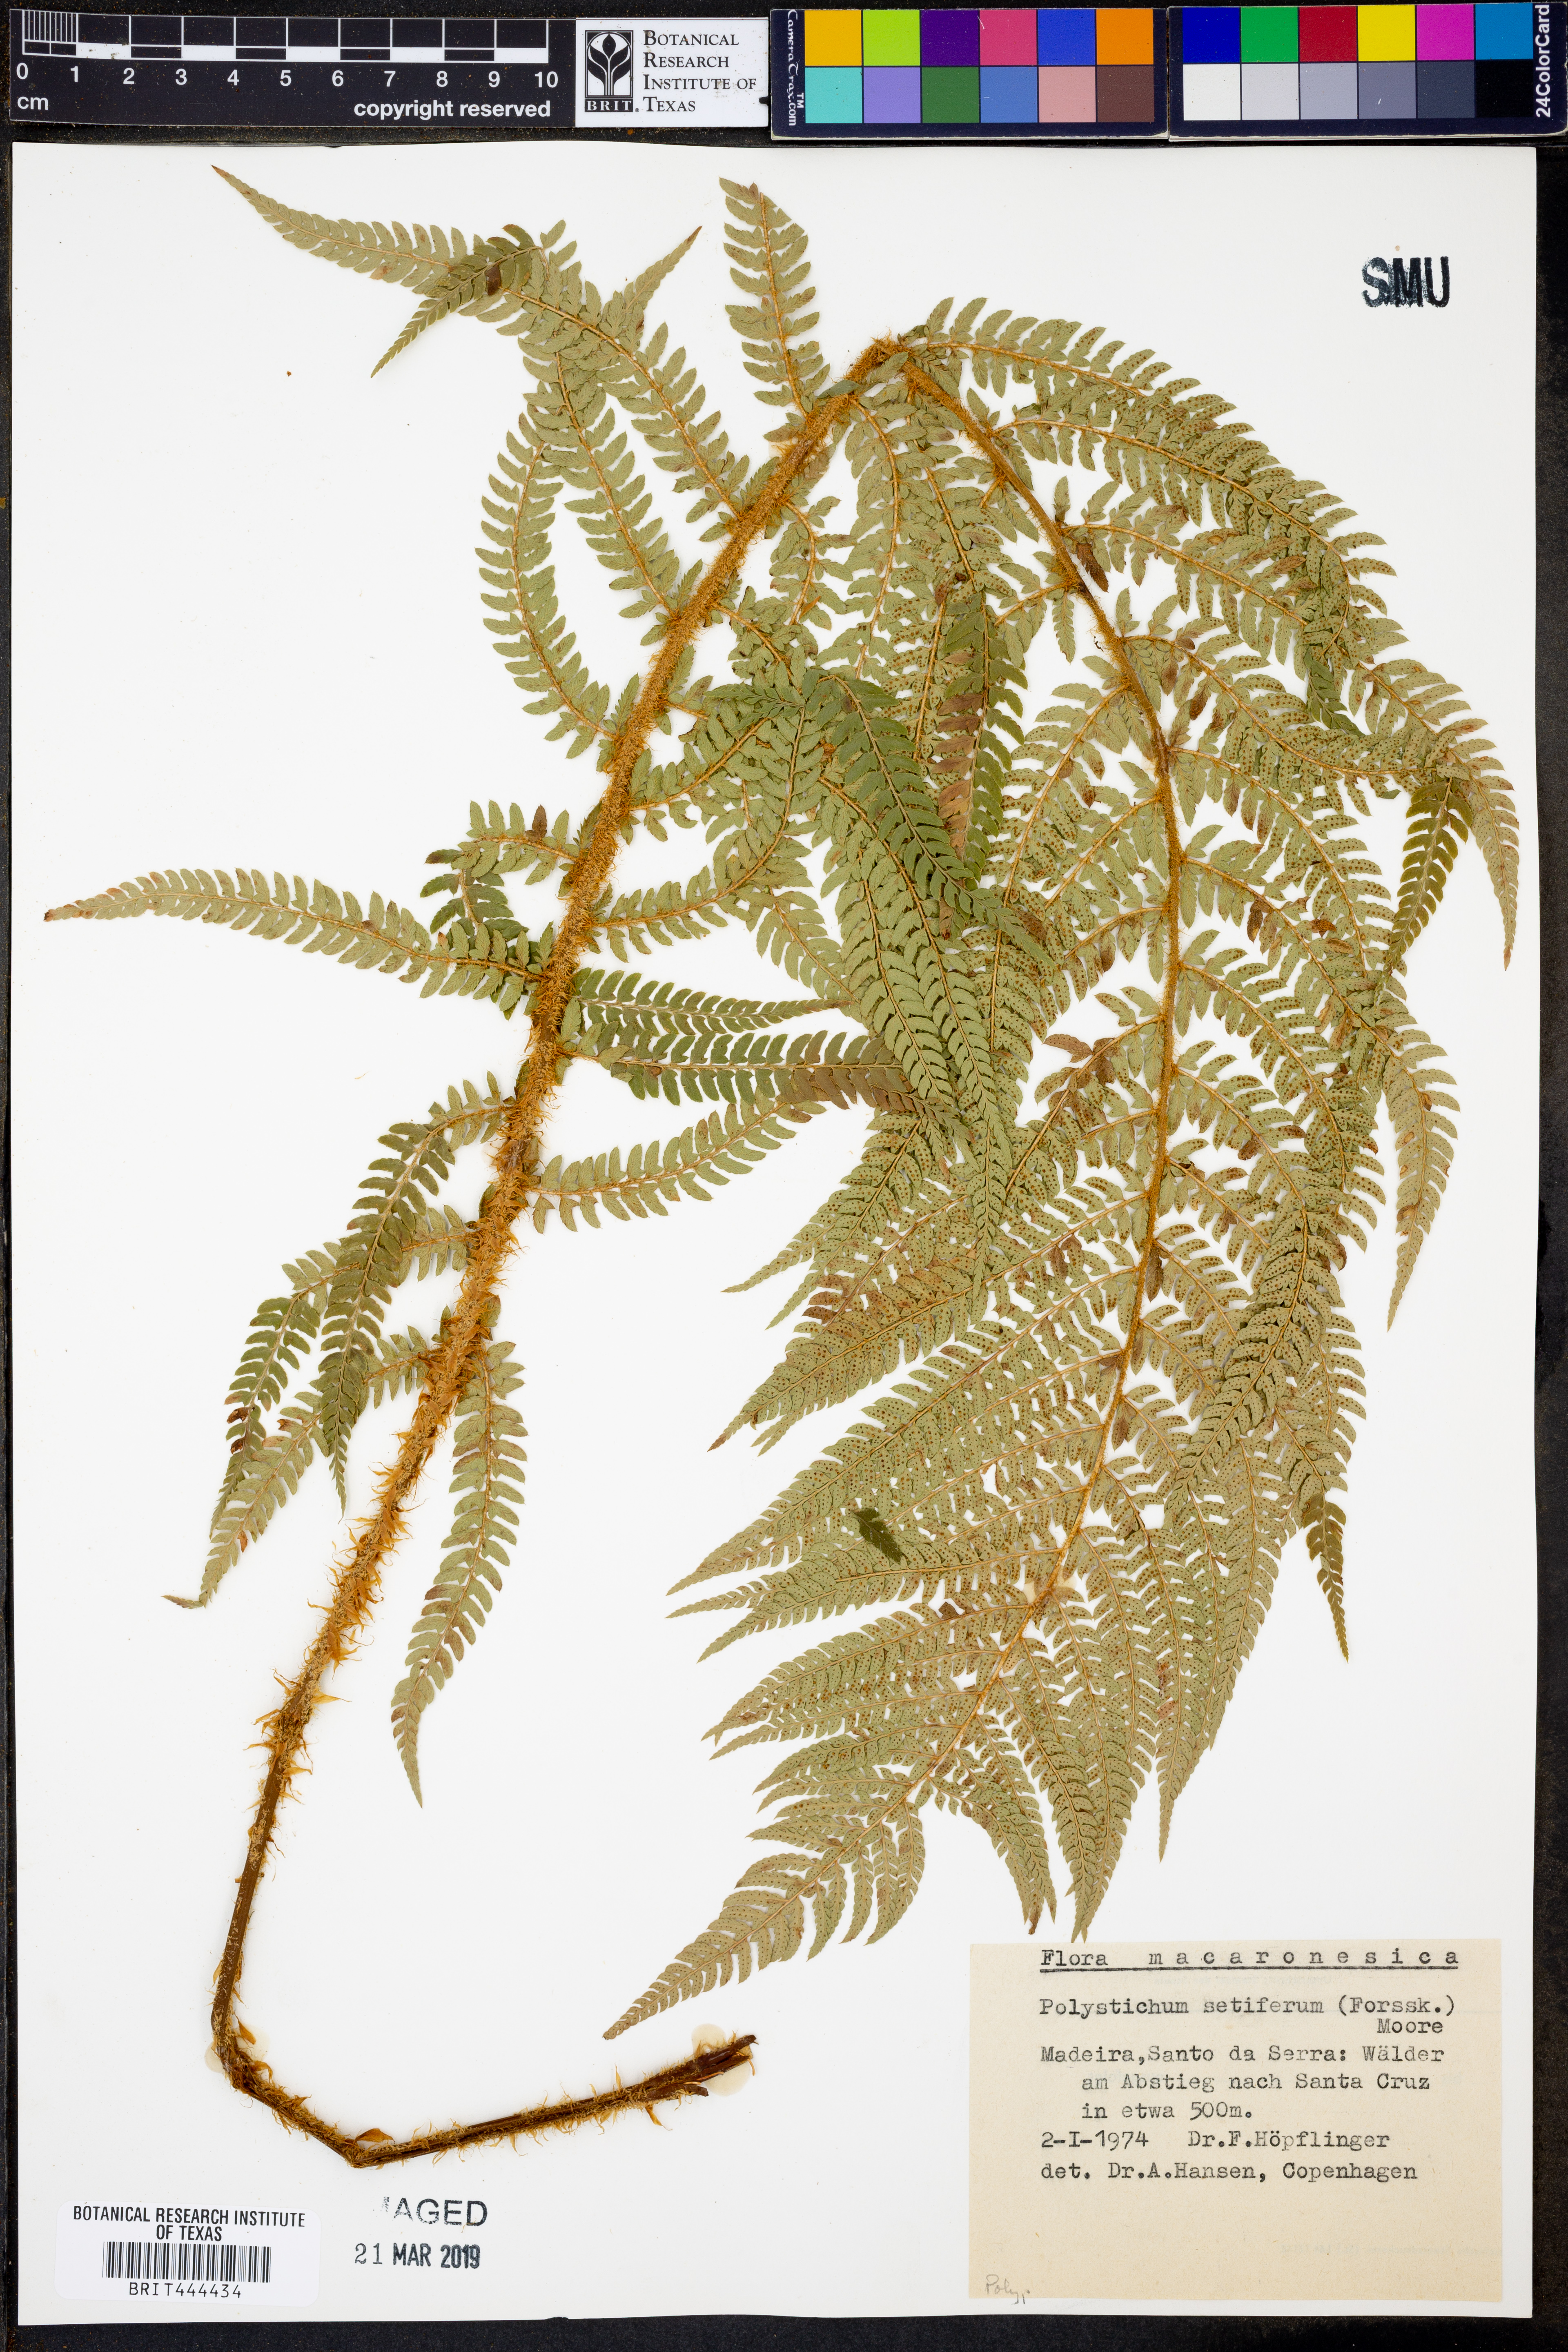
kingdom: Plantae
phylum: Tracheophyta
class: Polypodiopsida
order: Polypodiales
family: Dryopteridaceae
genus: Polystichum
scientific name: Polystichum setiferum
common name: Soft shield-fern
